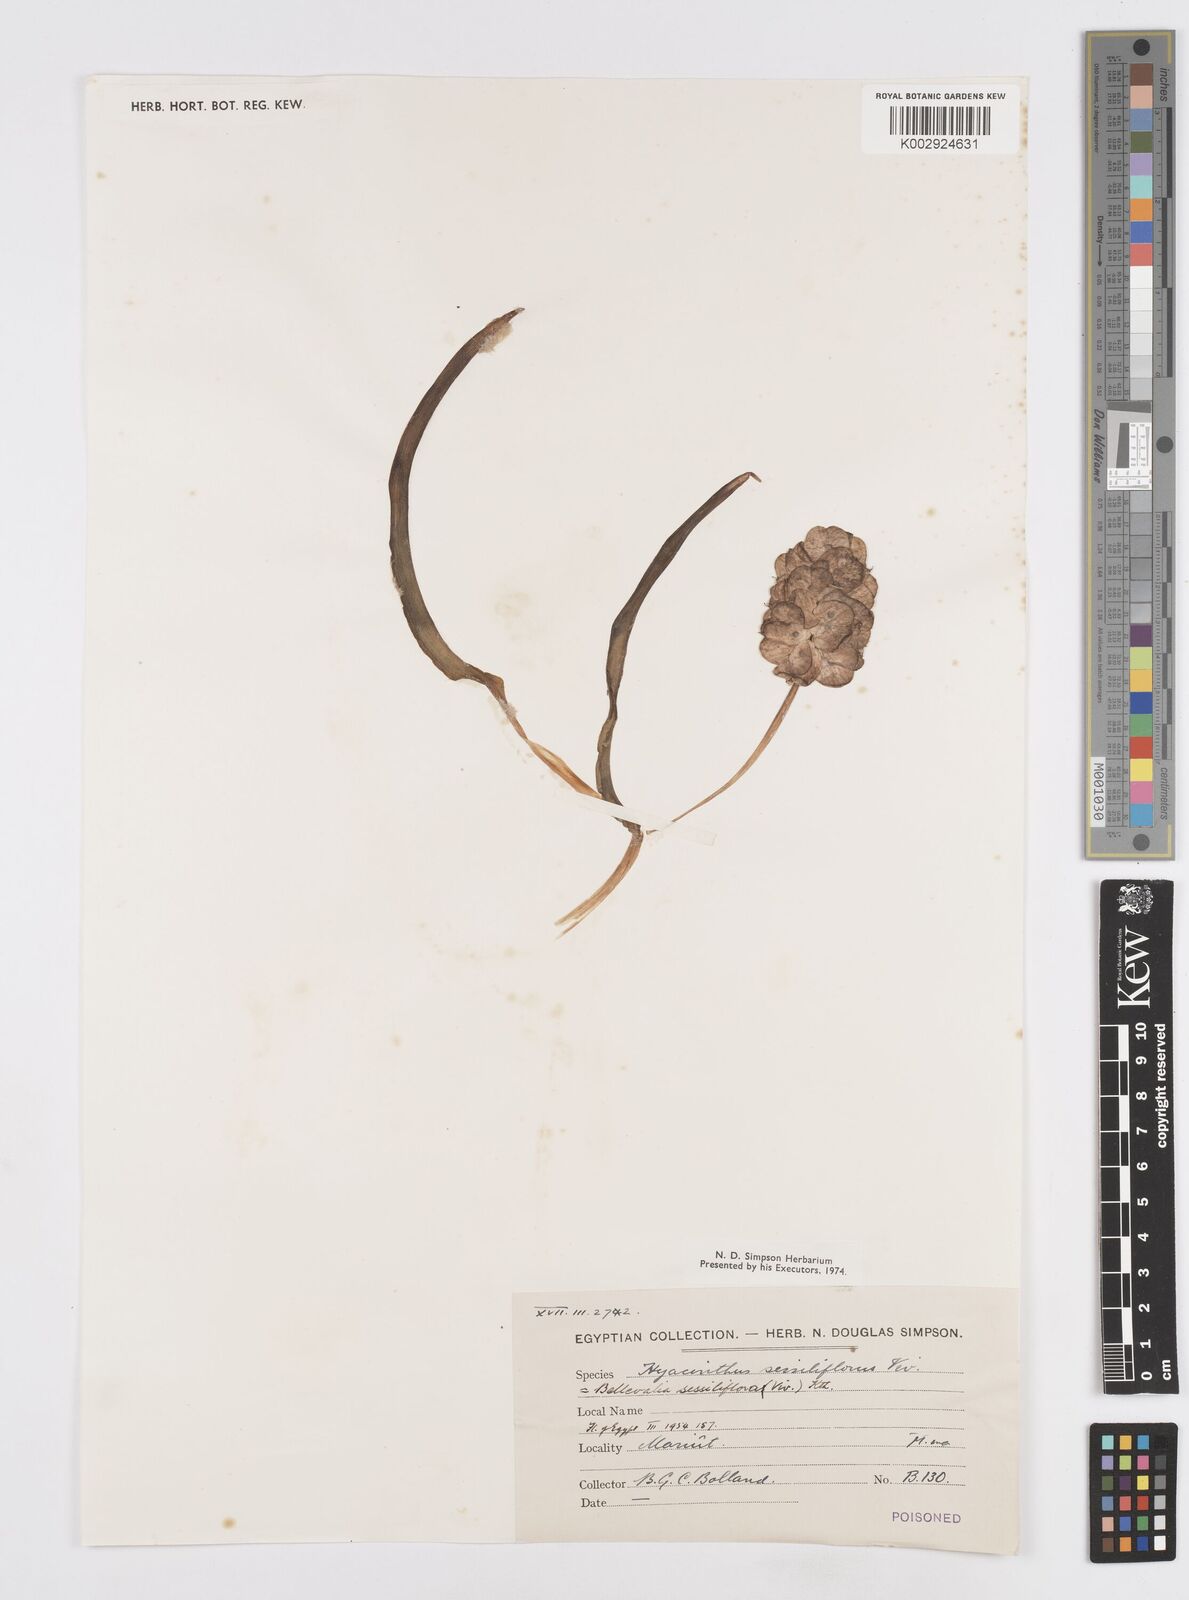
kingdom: Plantae
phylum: Tracheophyta
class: Liliopsida
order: Asparagales
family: Asparagaceae
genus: Bellevalia
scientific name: Bellevalia sessiliflora
